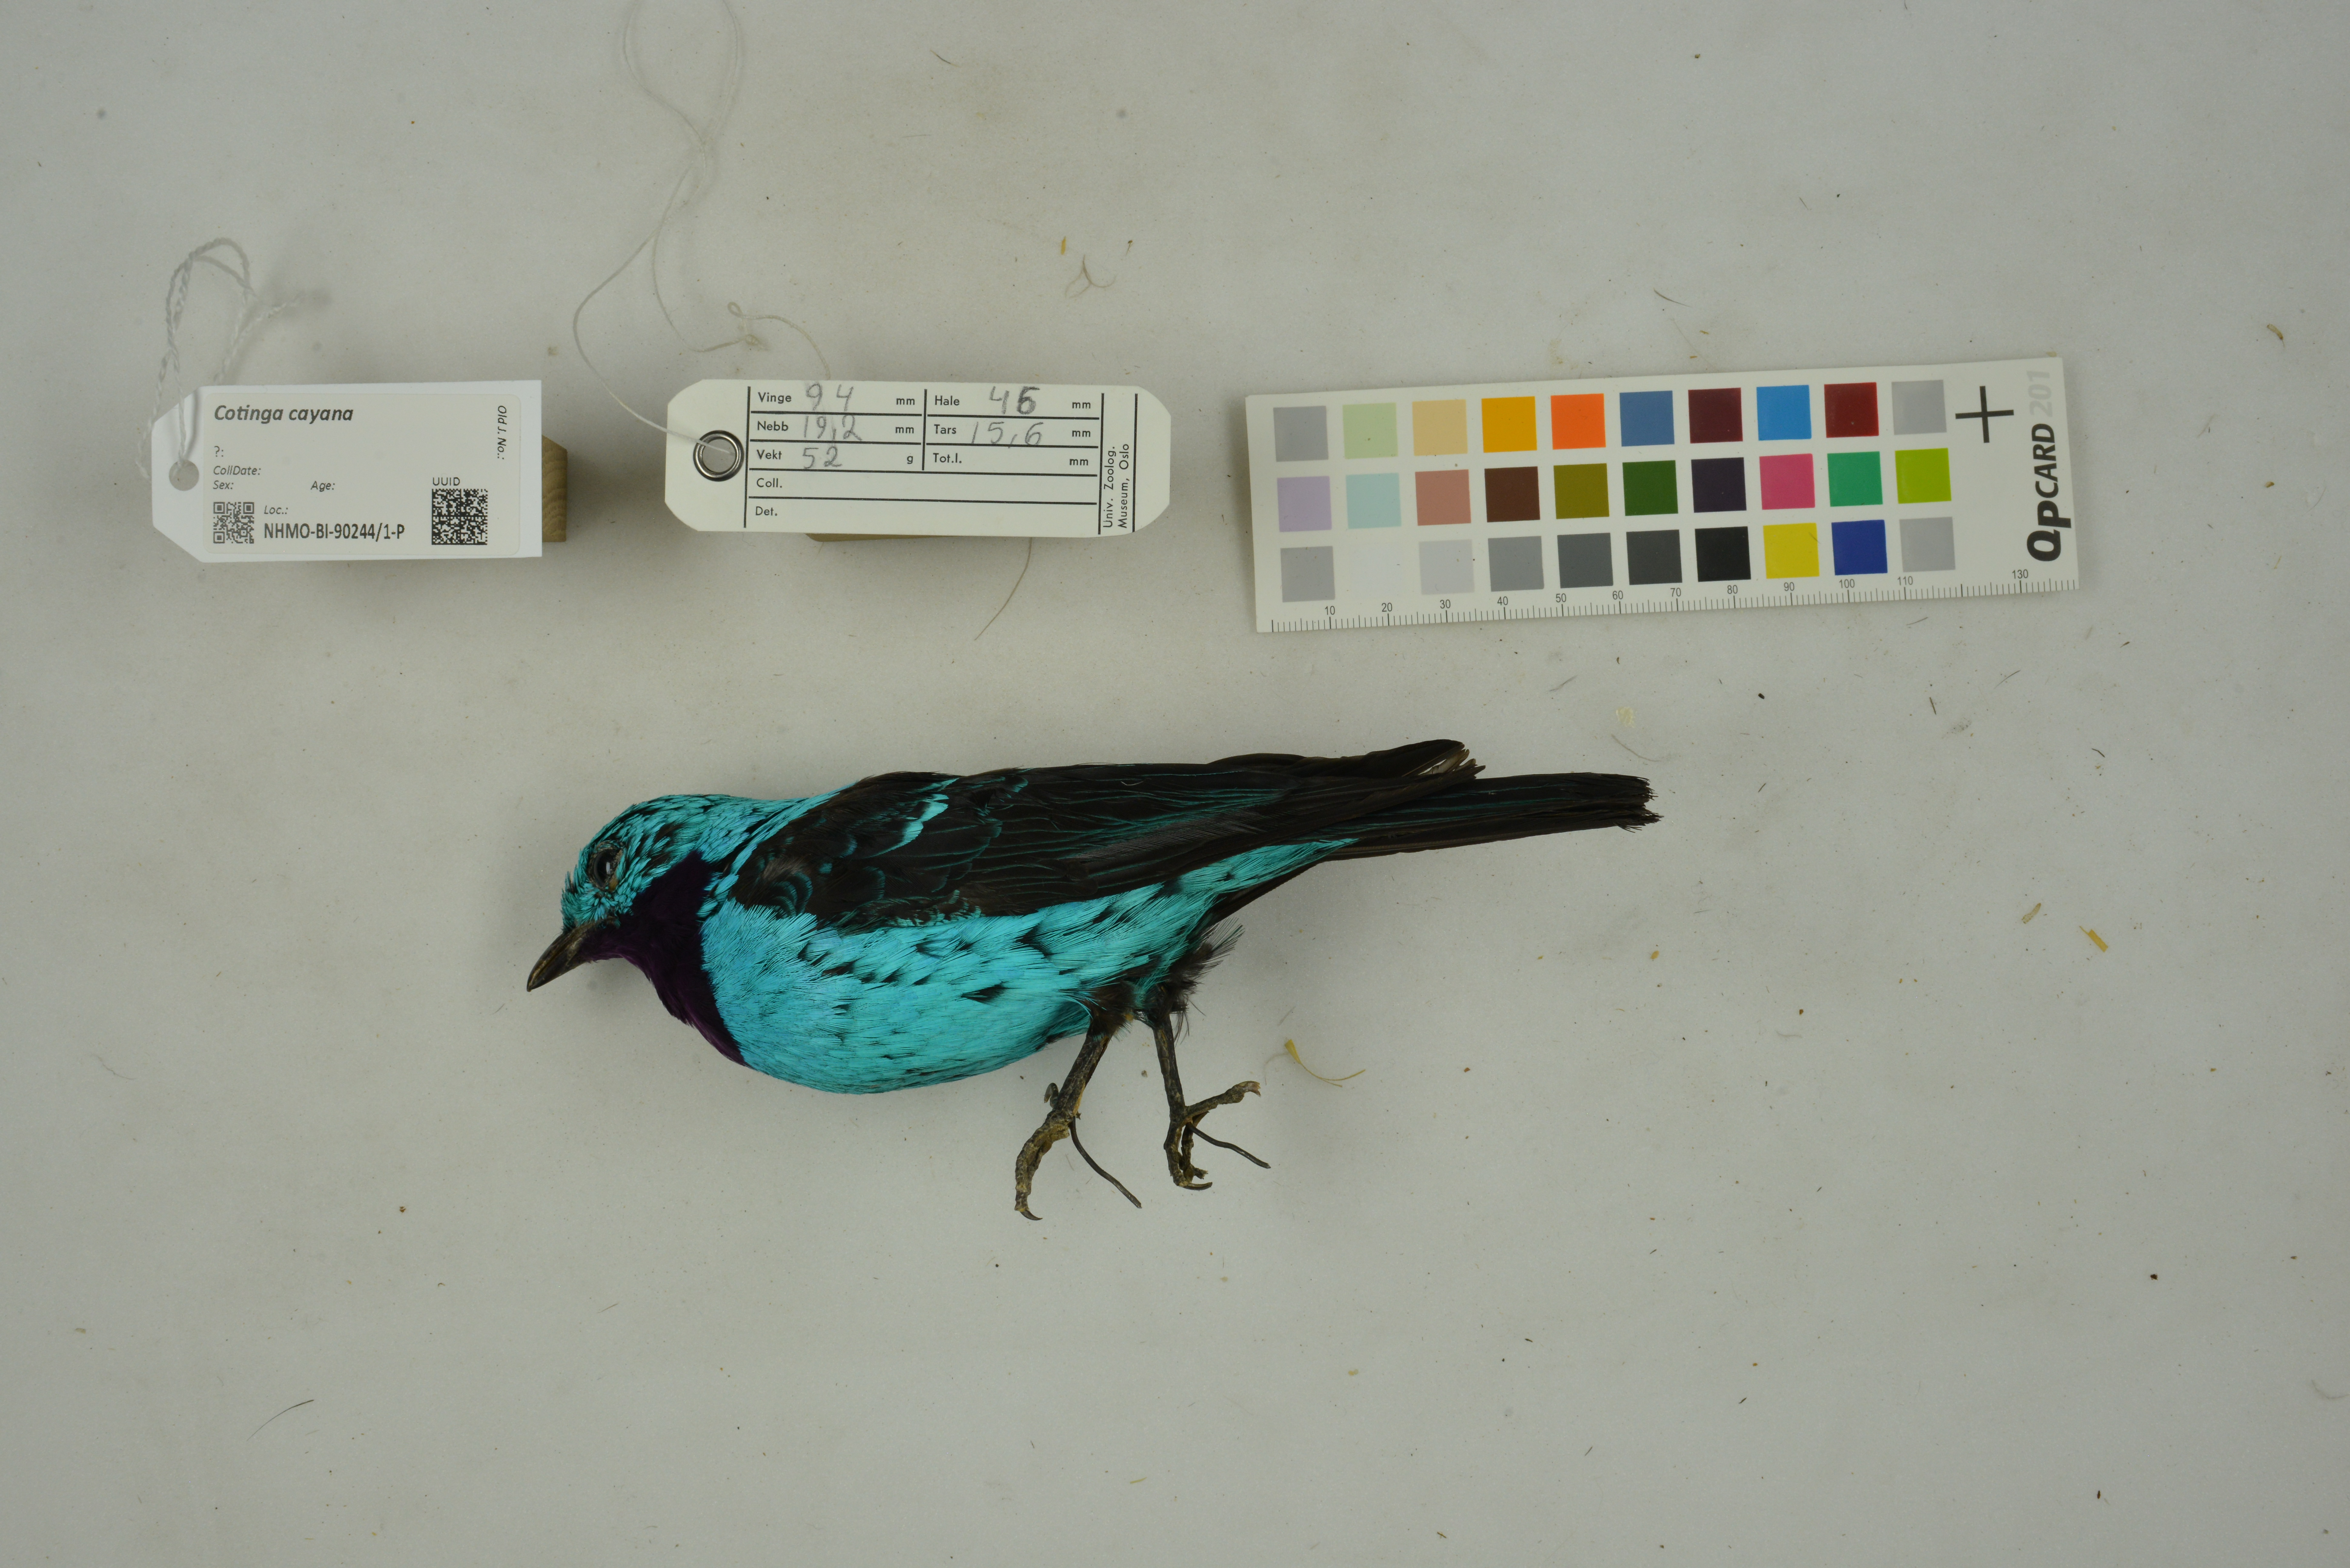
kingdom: Animalia
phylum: Chordata
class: Aves
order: Passeriformes
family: Cotingidae
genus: Cotinga
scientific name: Cotinga cayana
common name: Spangled cotinga
